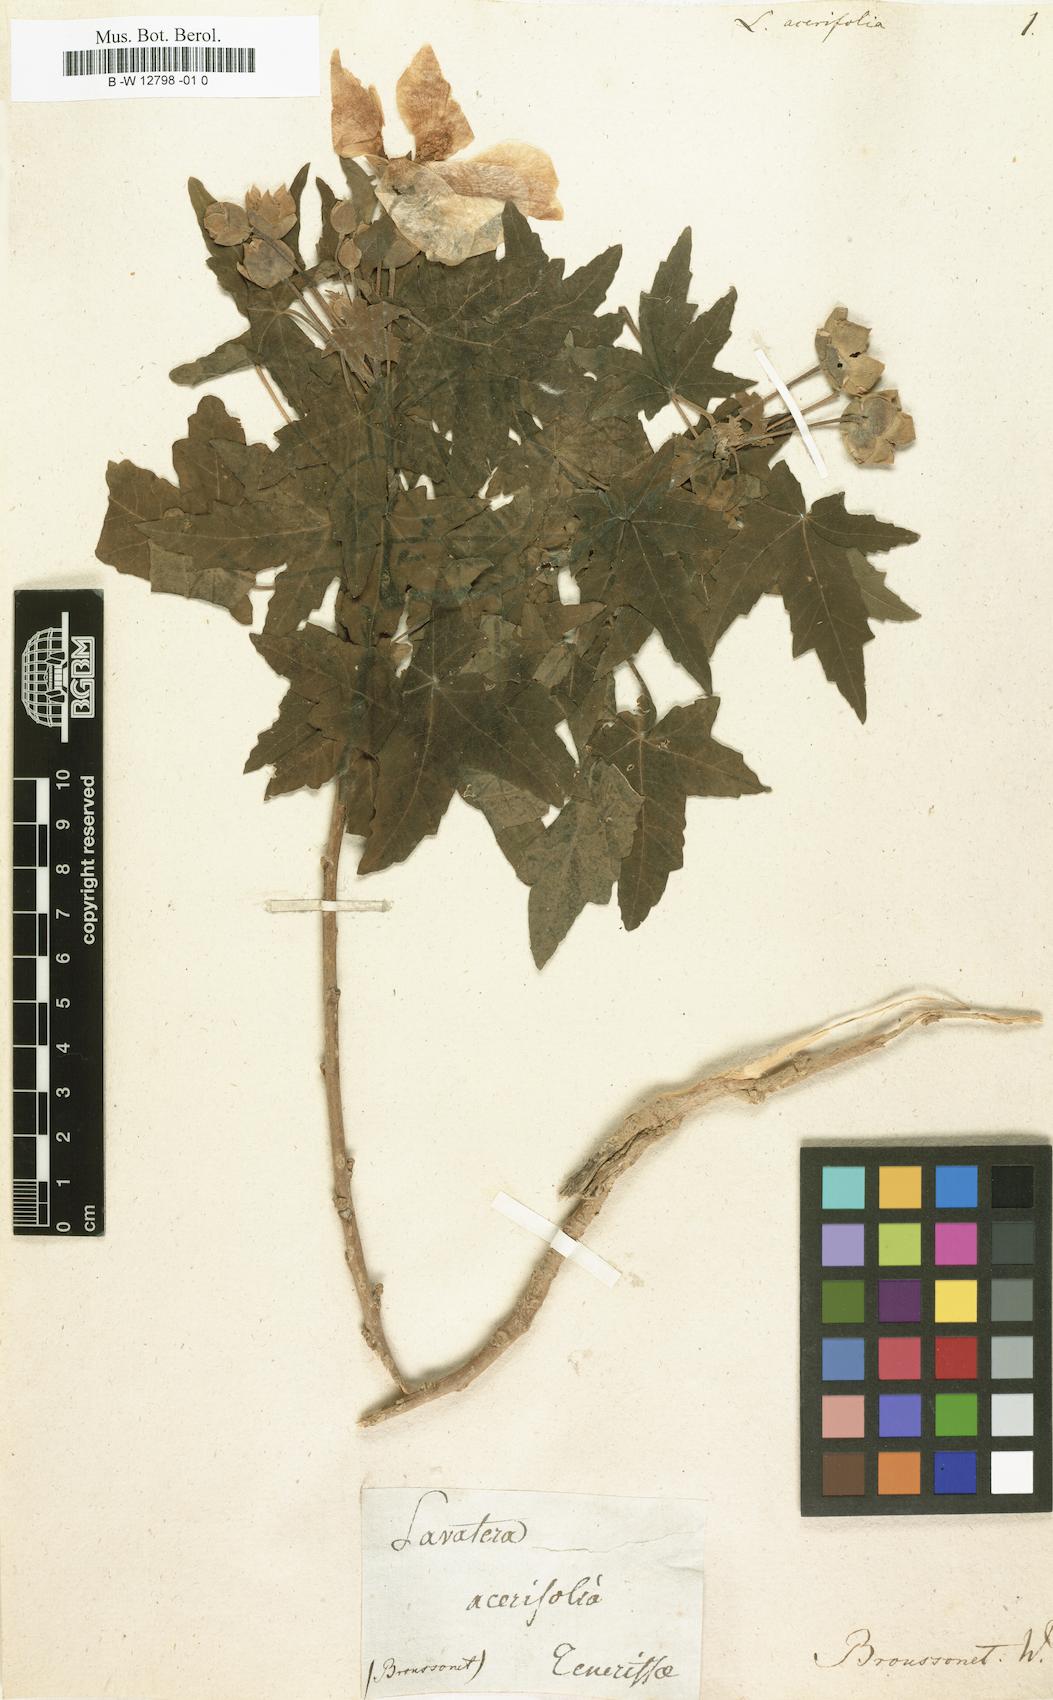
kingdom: Plantae
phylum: Tracheophyta
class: Magnoliopsida
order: Malvales
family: Malvaceae
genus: Malva
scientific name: Malva acerifolia
